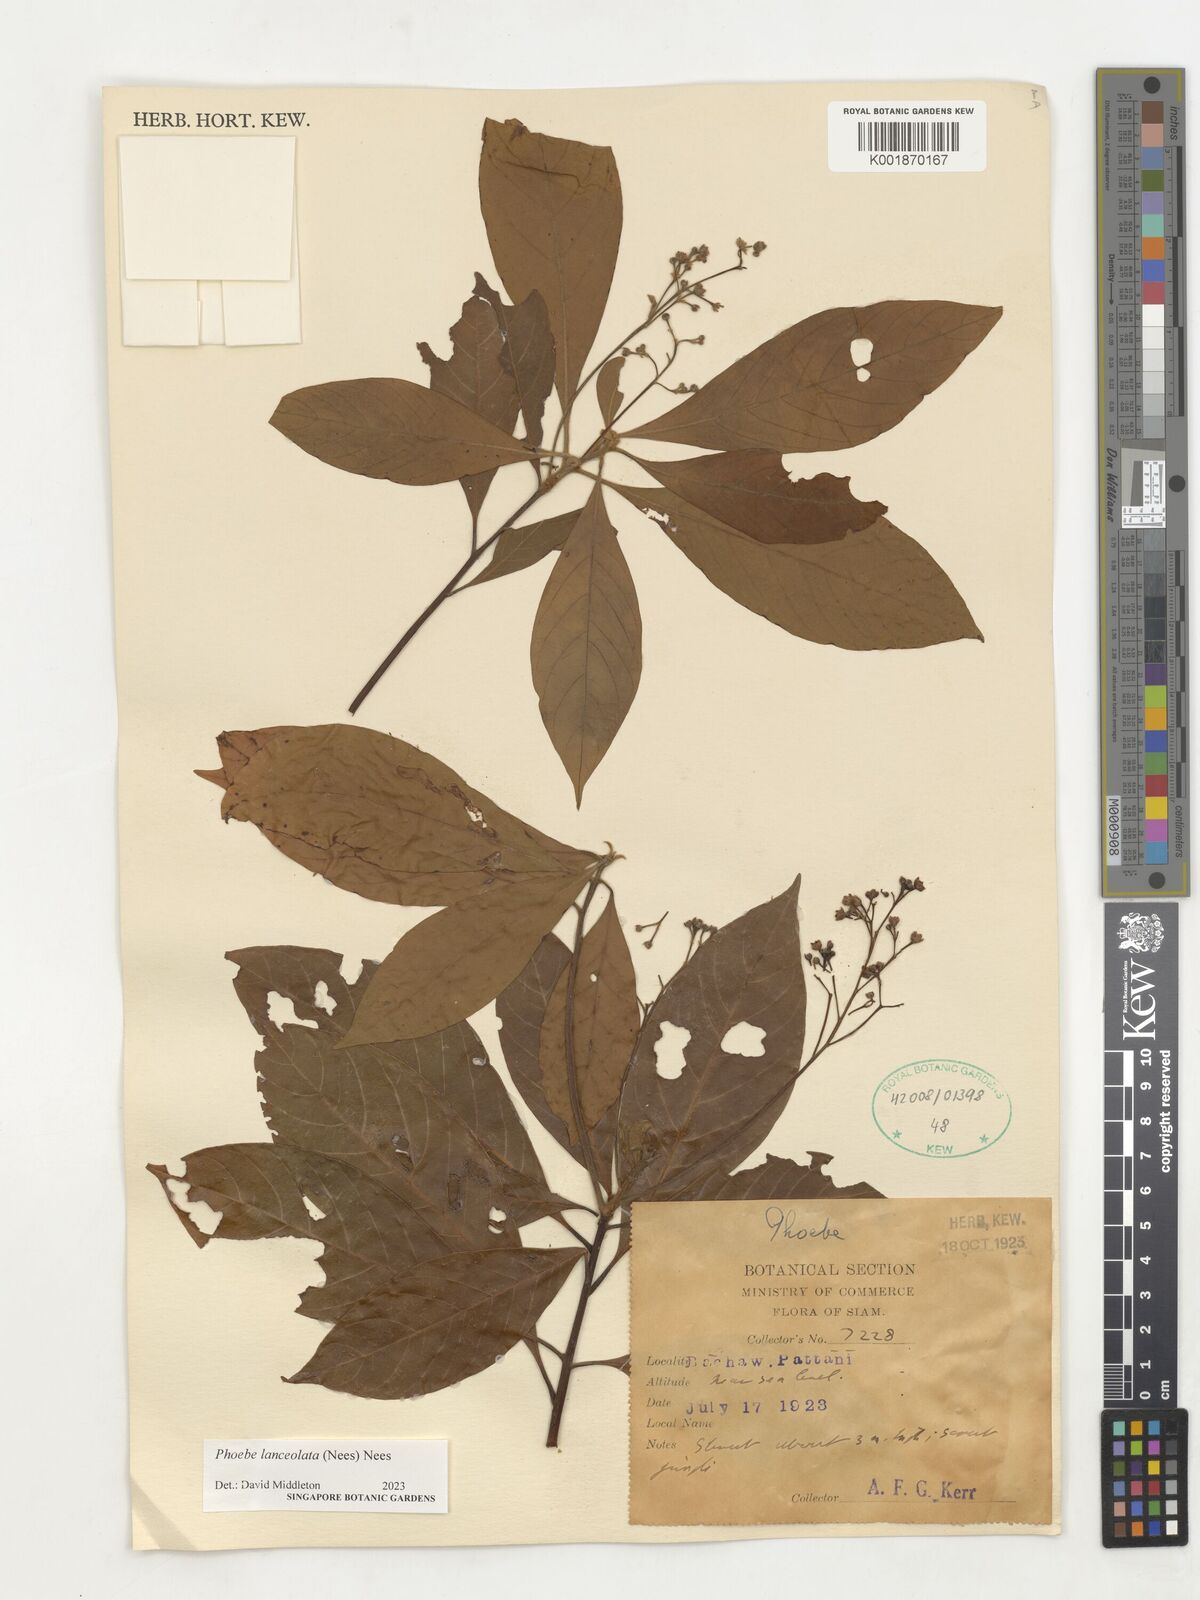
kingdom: Plantae
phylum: Tracheophyta
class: Magnoliopsida
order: Laurales
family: Lauraceae
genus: Phoebe
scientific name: Phoebe lanceolata
